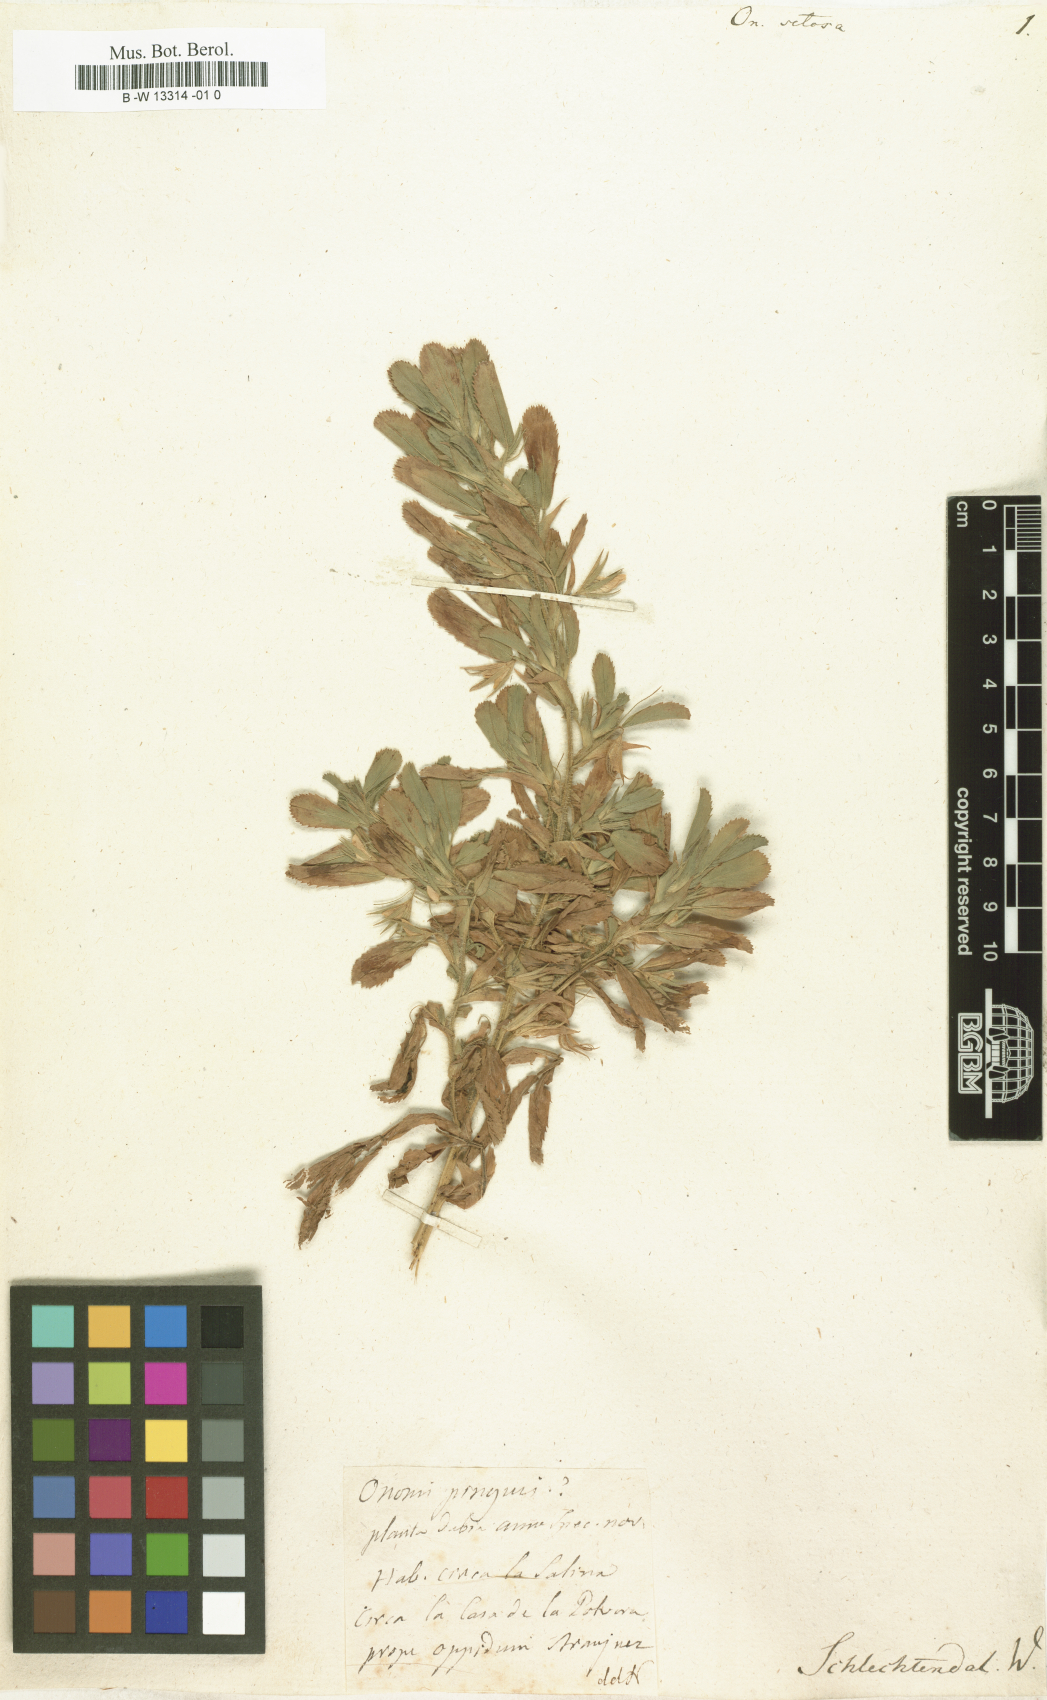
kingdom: Plantae
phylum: Tracheophyta
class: Magnoliopsida
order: Fabales
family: Fabaceae
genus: Ononis
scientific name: Ononis
